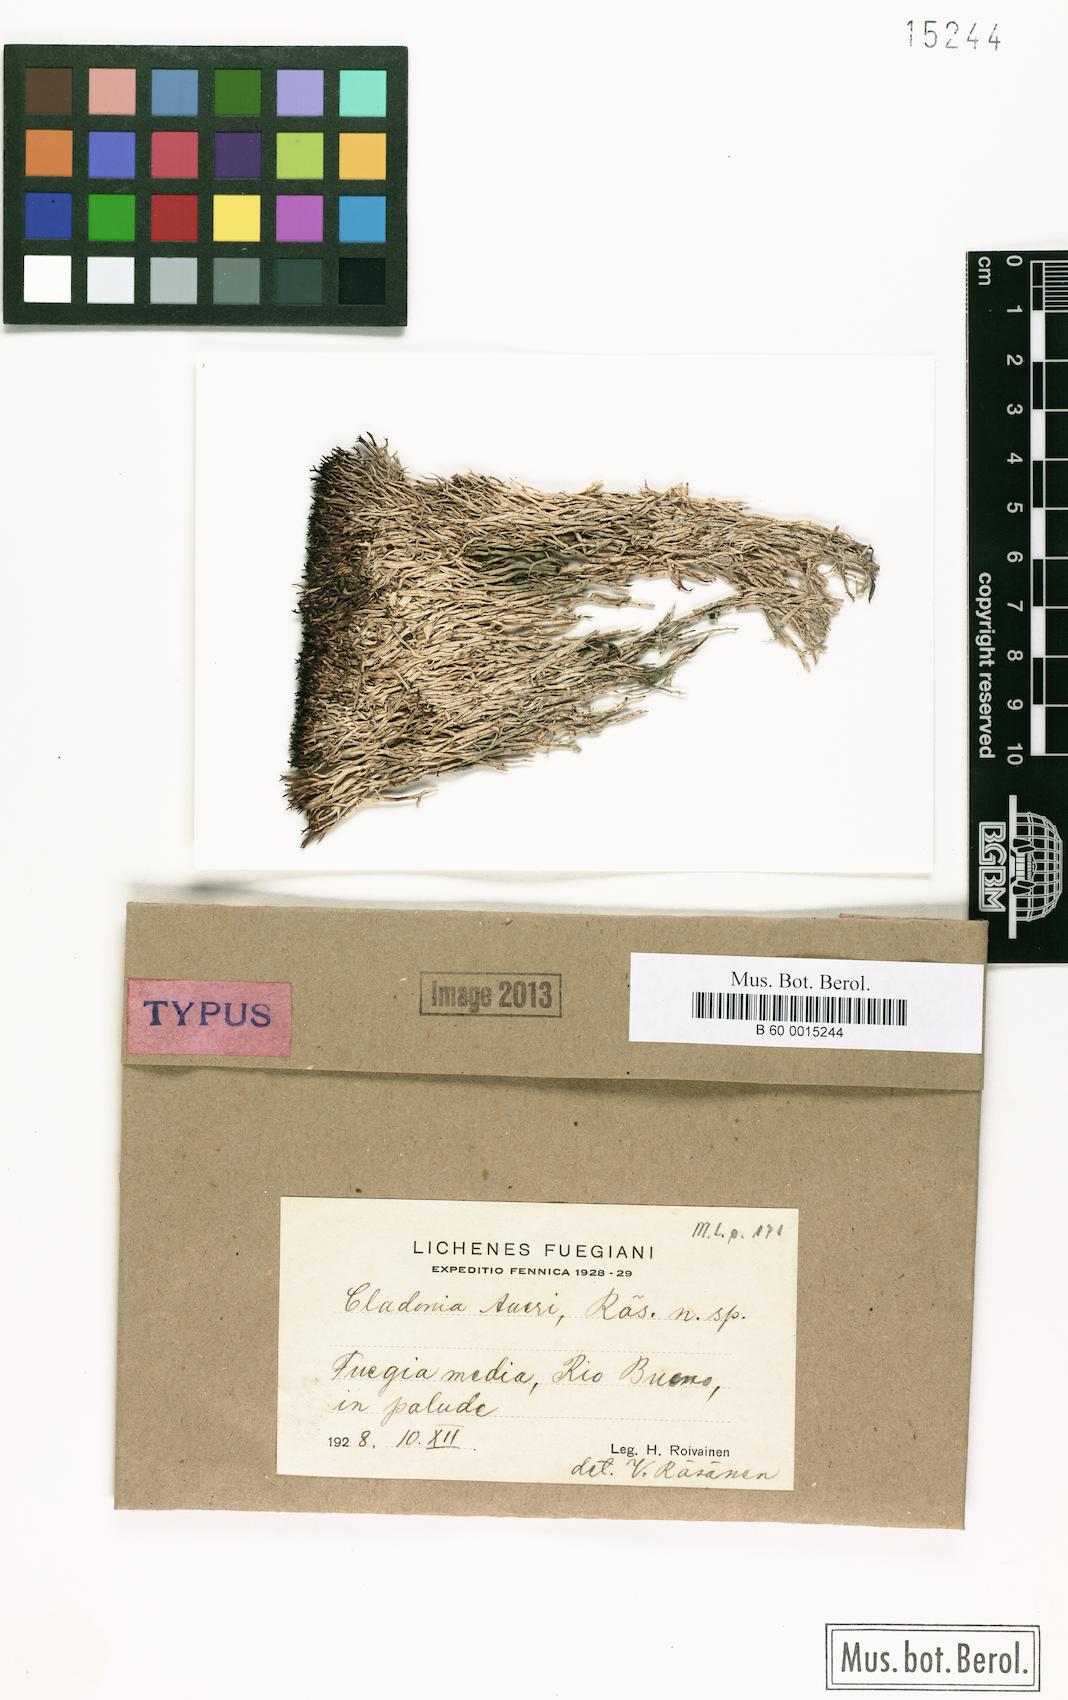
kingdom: Fungi
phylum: Ascomycota
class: Lecanoromycetes
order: Lecanorales
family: Cladoniaceae
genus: Cladonia
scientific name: Cladonia aueri
